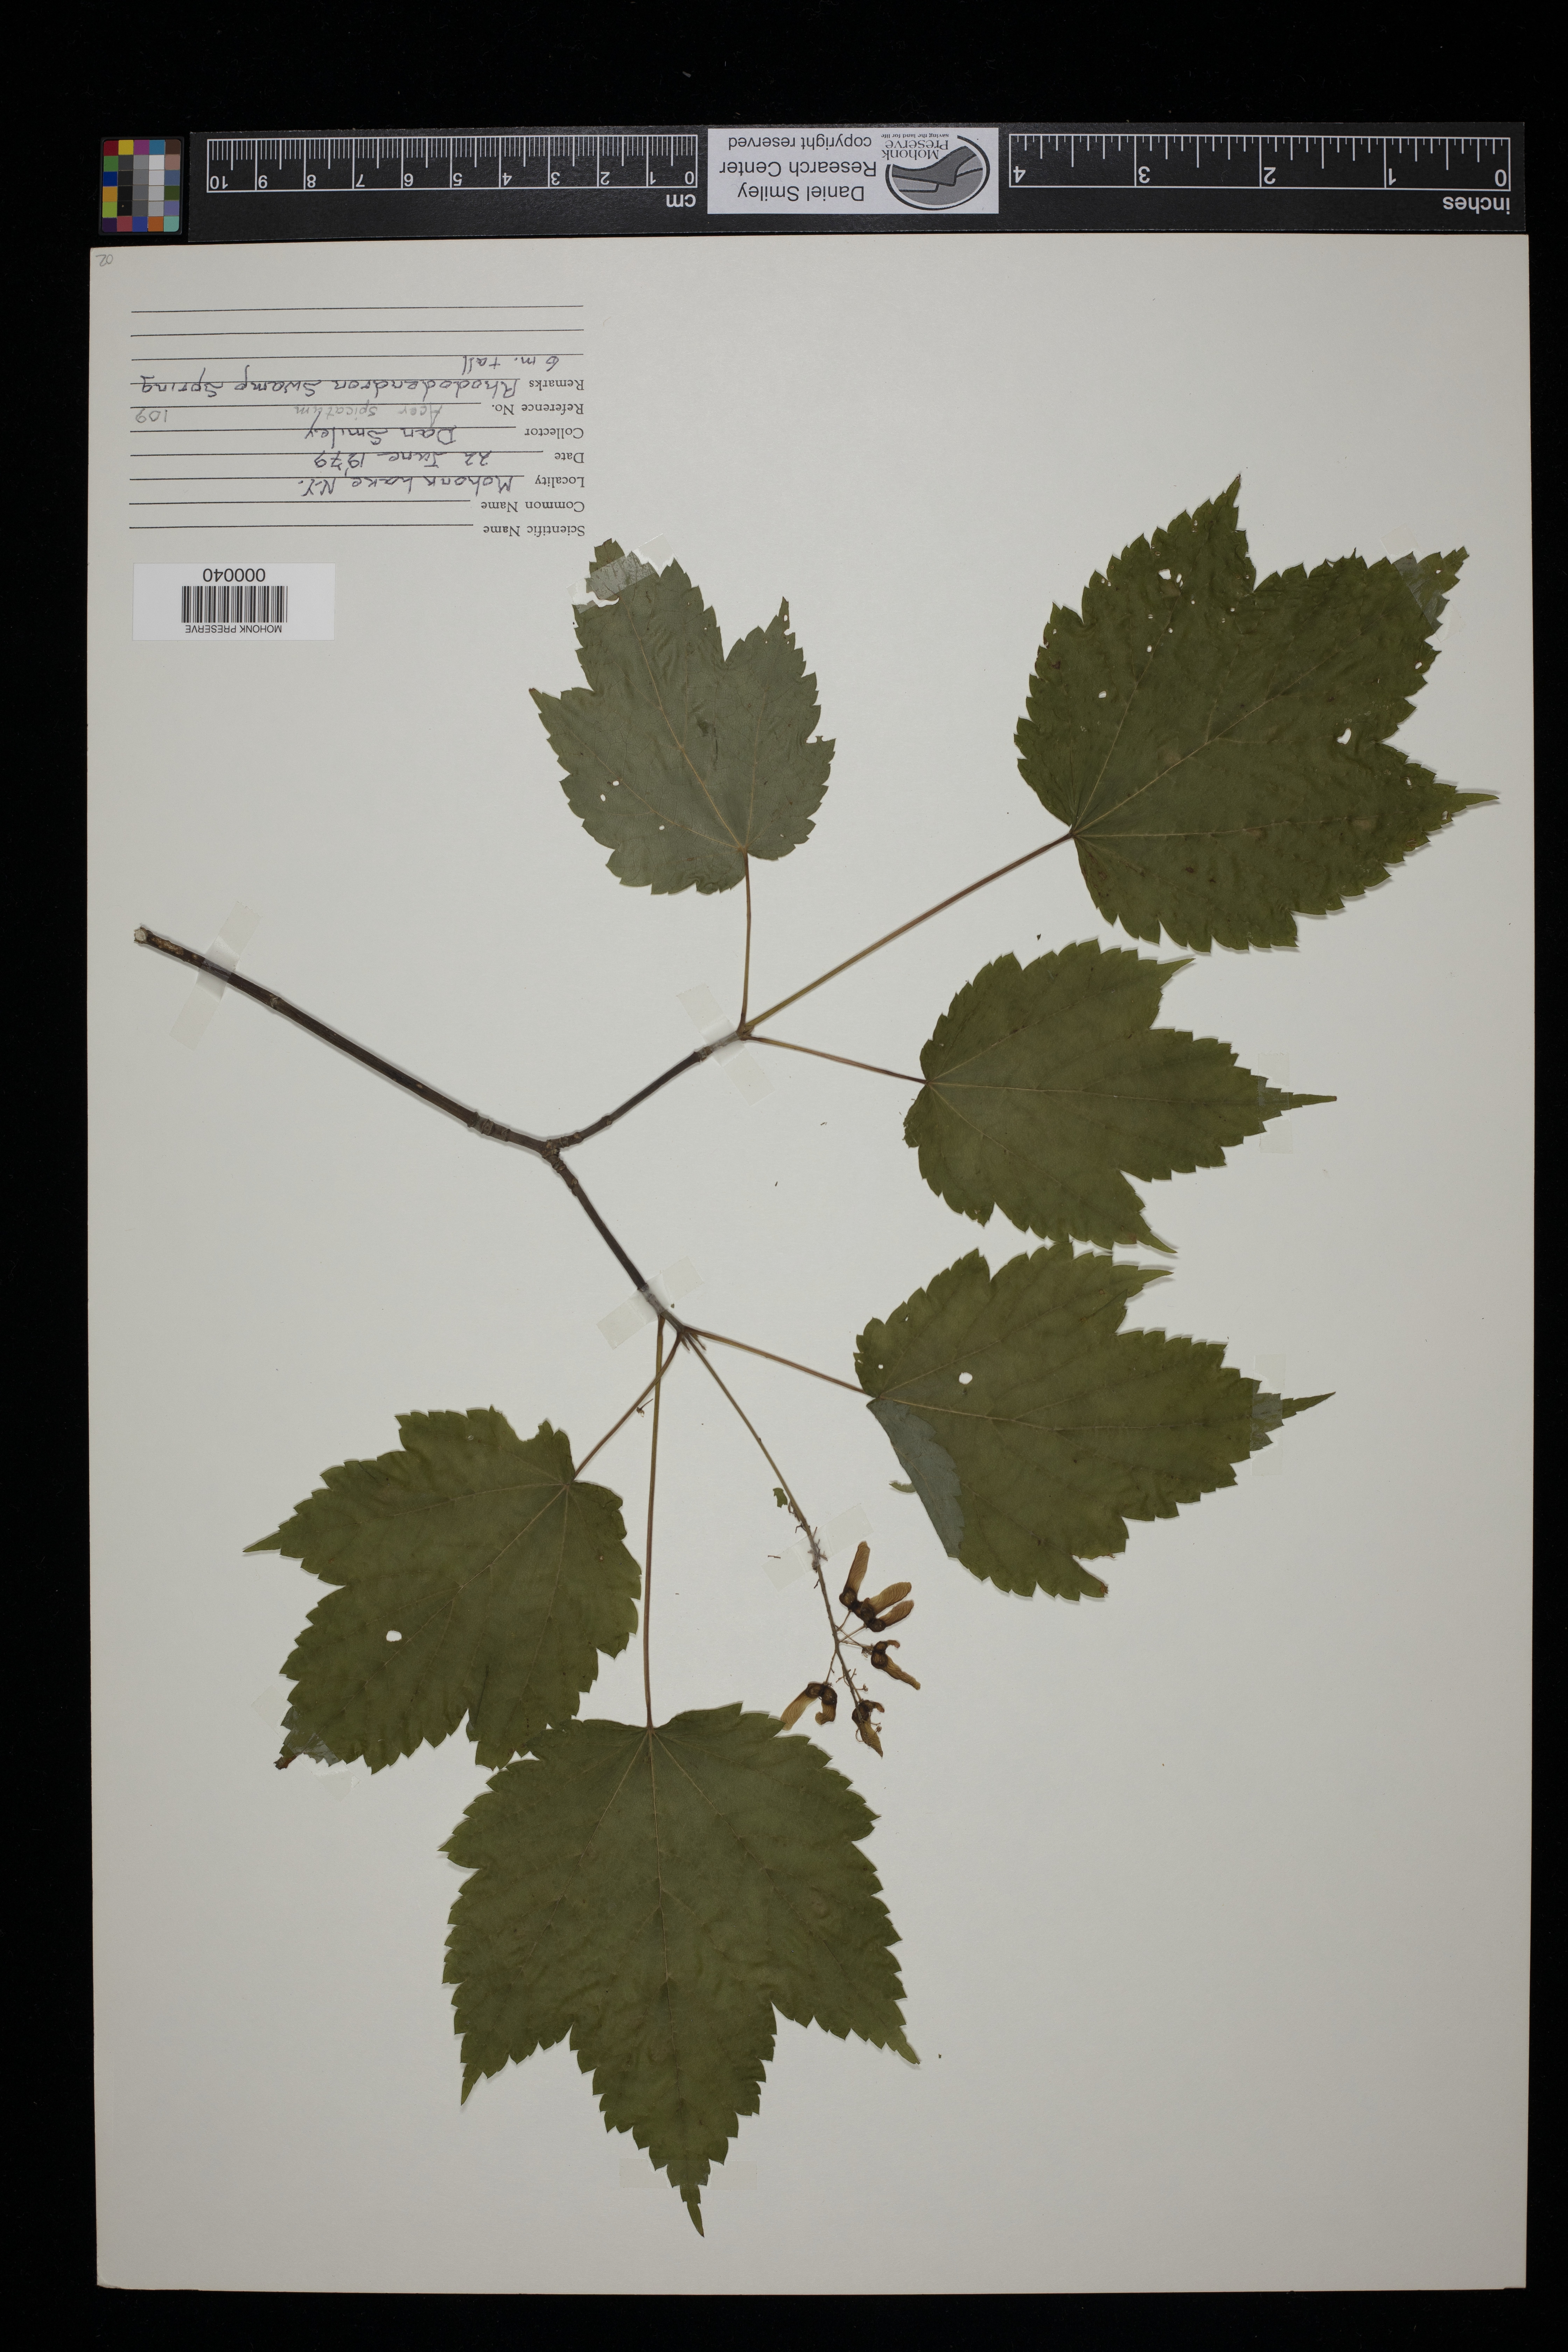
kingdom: Plantae
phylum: Tracheophyta
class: Magnoliopsida
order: Sapindales
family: Sapindaceae
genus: Acer
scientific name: Acer spicatum
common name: Mountain maple
